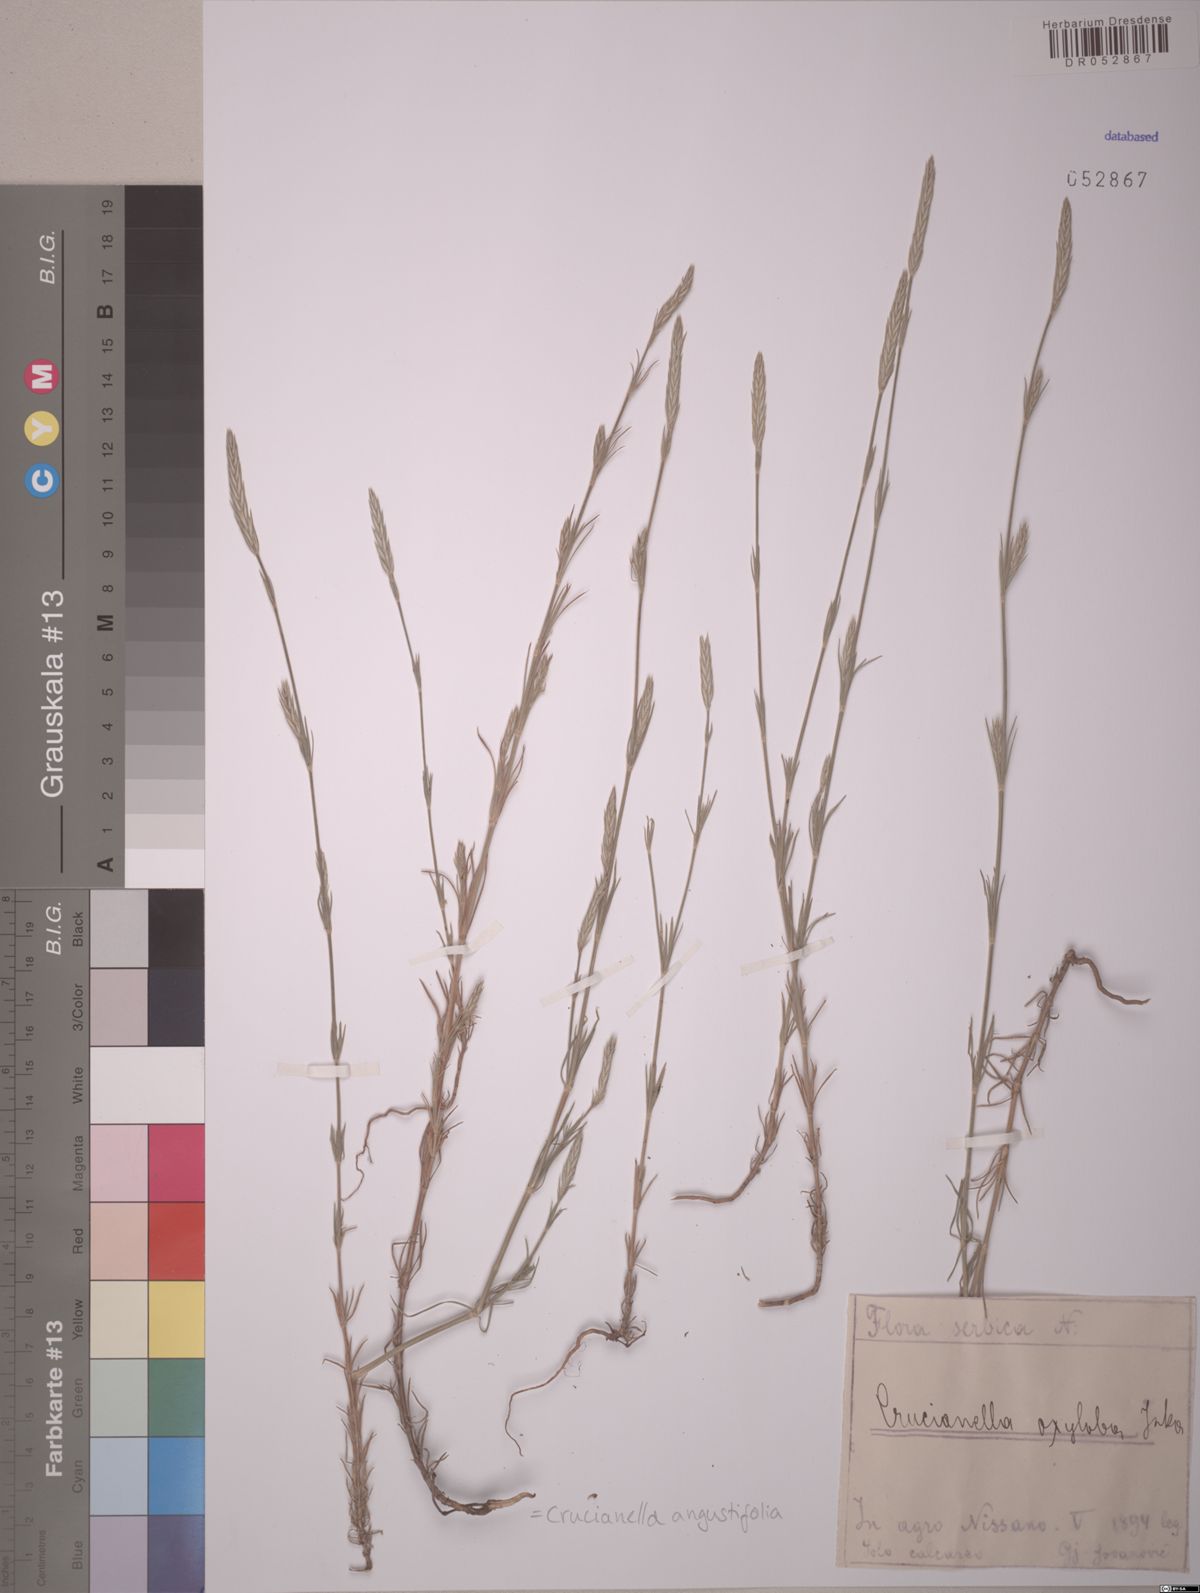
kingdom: Plantae
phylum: Tracheophyta
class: Magnoliopsida
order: Gentianales
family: Rubiaceae
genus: Crucianella
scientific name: Crucianella angustifolia
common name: Narrowleaf crucianella
